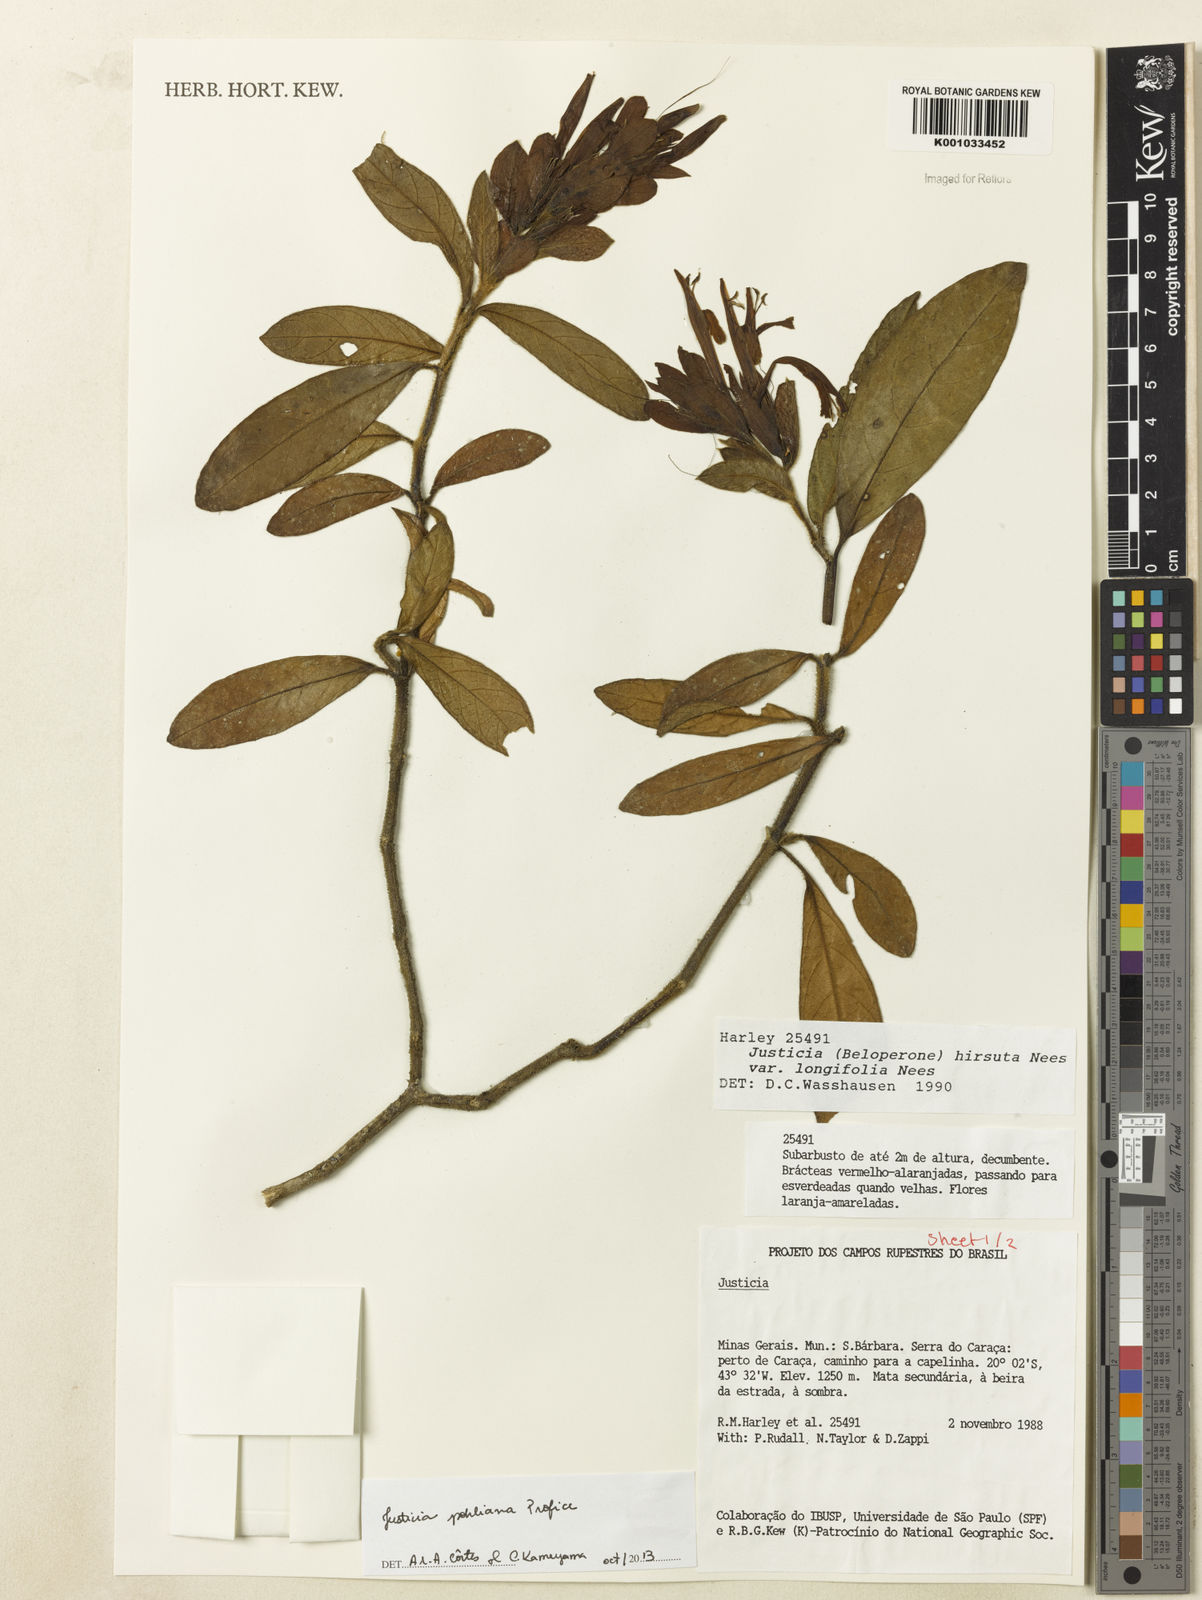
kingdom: Plantae
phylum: Tracheophyta
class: Magnoliopsida
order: Lamiales
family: Acanthaceae
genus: Justicia
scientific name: Justicia pohliana
